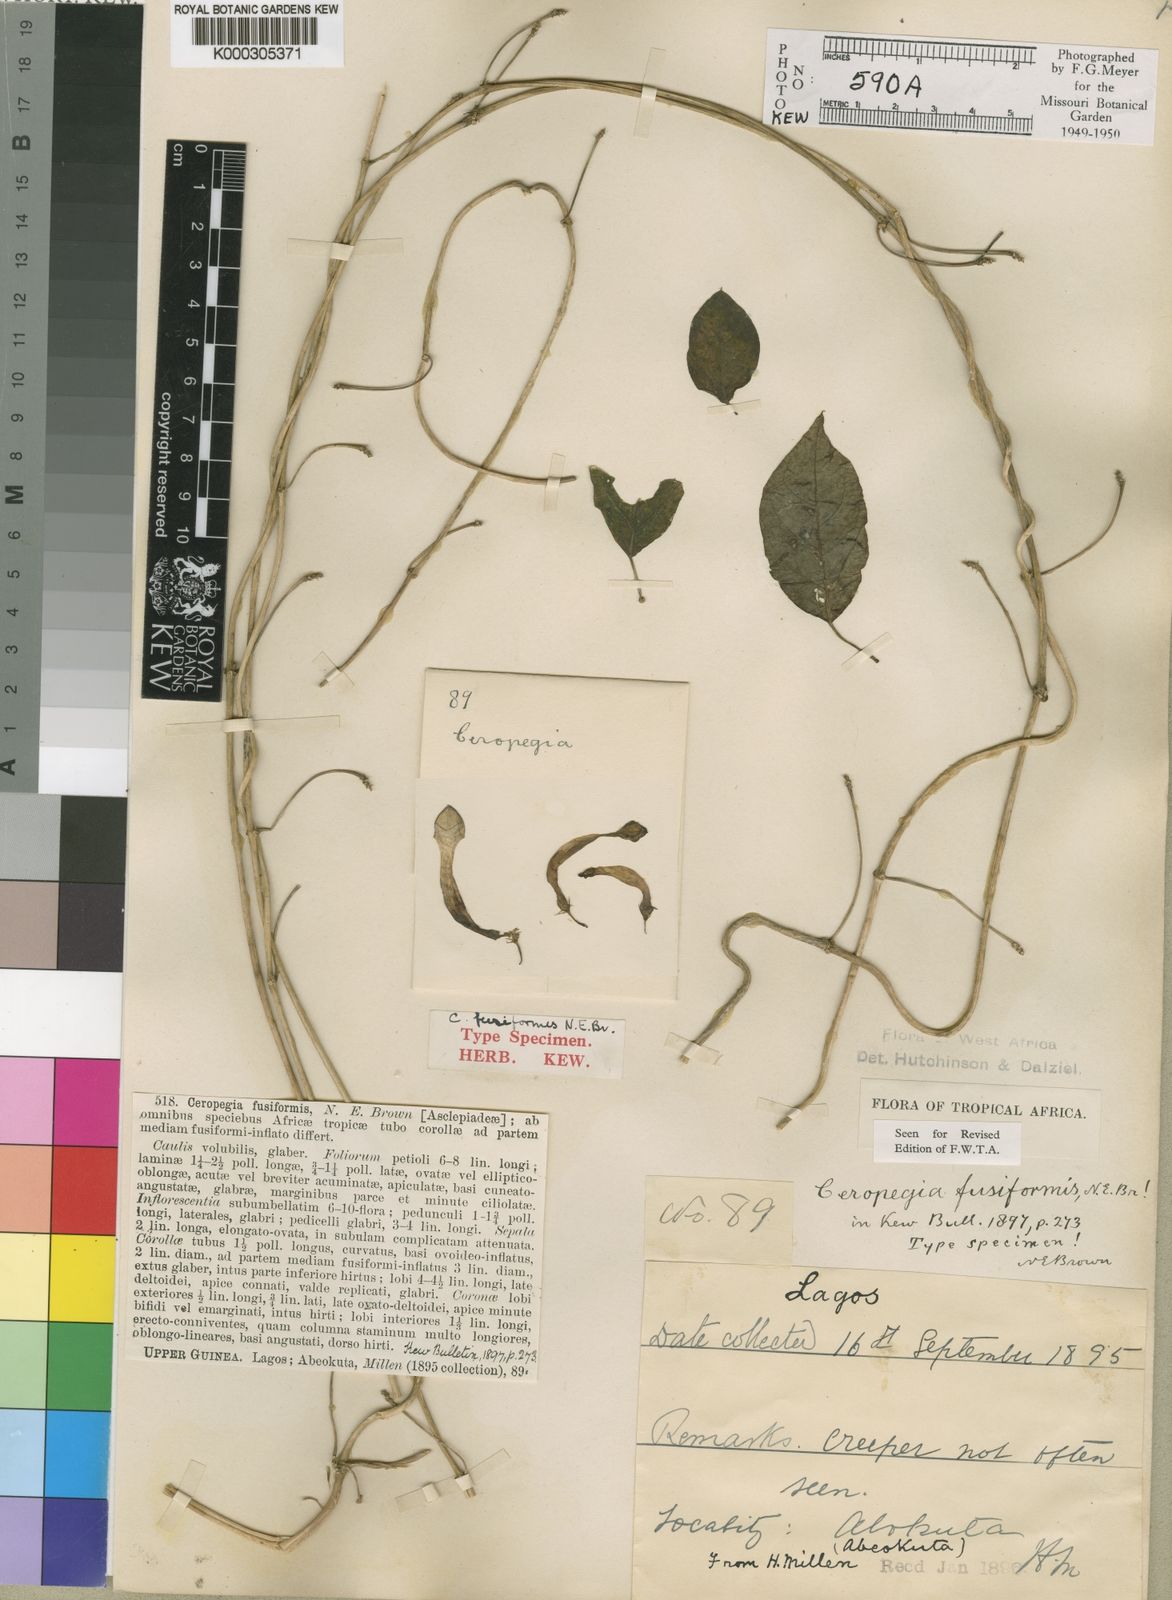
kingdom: Plantae
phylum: Tracheophyta
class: Magnoliopsida
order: Gentianales
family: Apocynaceae
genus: Ceropegia
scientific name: Ceropegia fusiformis
